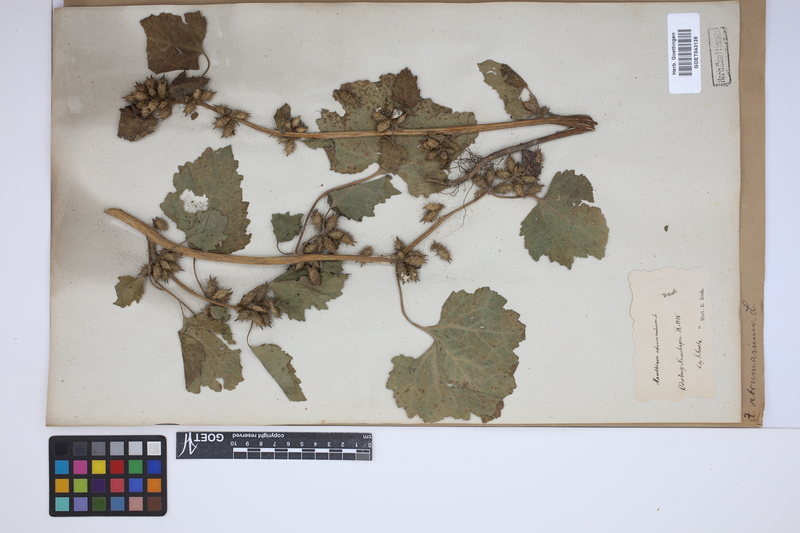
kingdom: Plantae
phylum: Tracheophyta
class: Magnoliopsida
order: Asterales
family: Asteraceae
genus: Xanthium
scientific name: Xanthium strumarium
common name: Rough cocklebur
